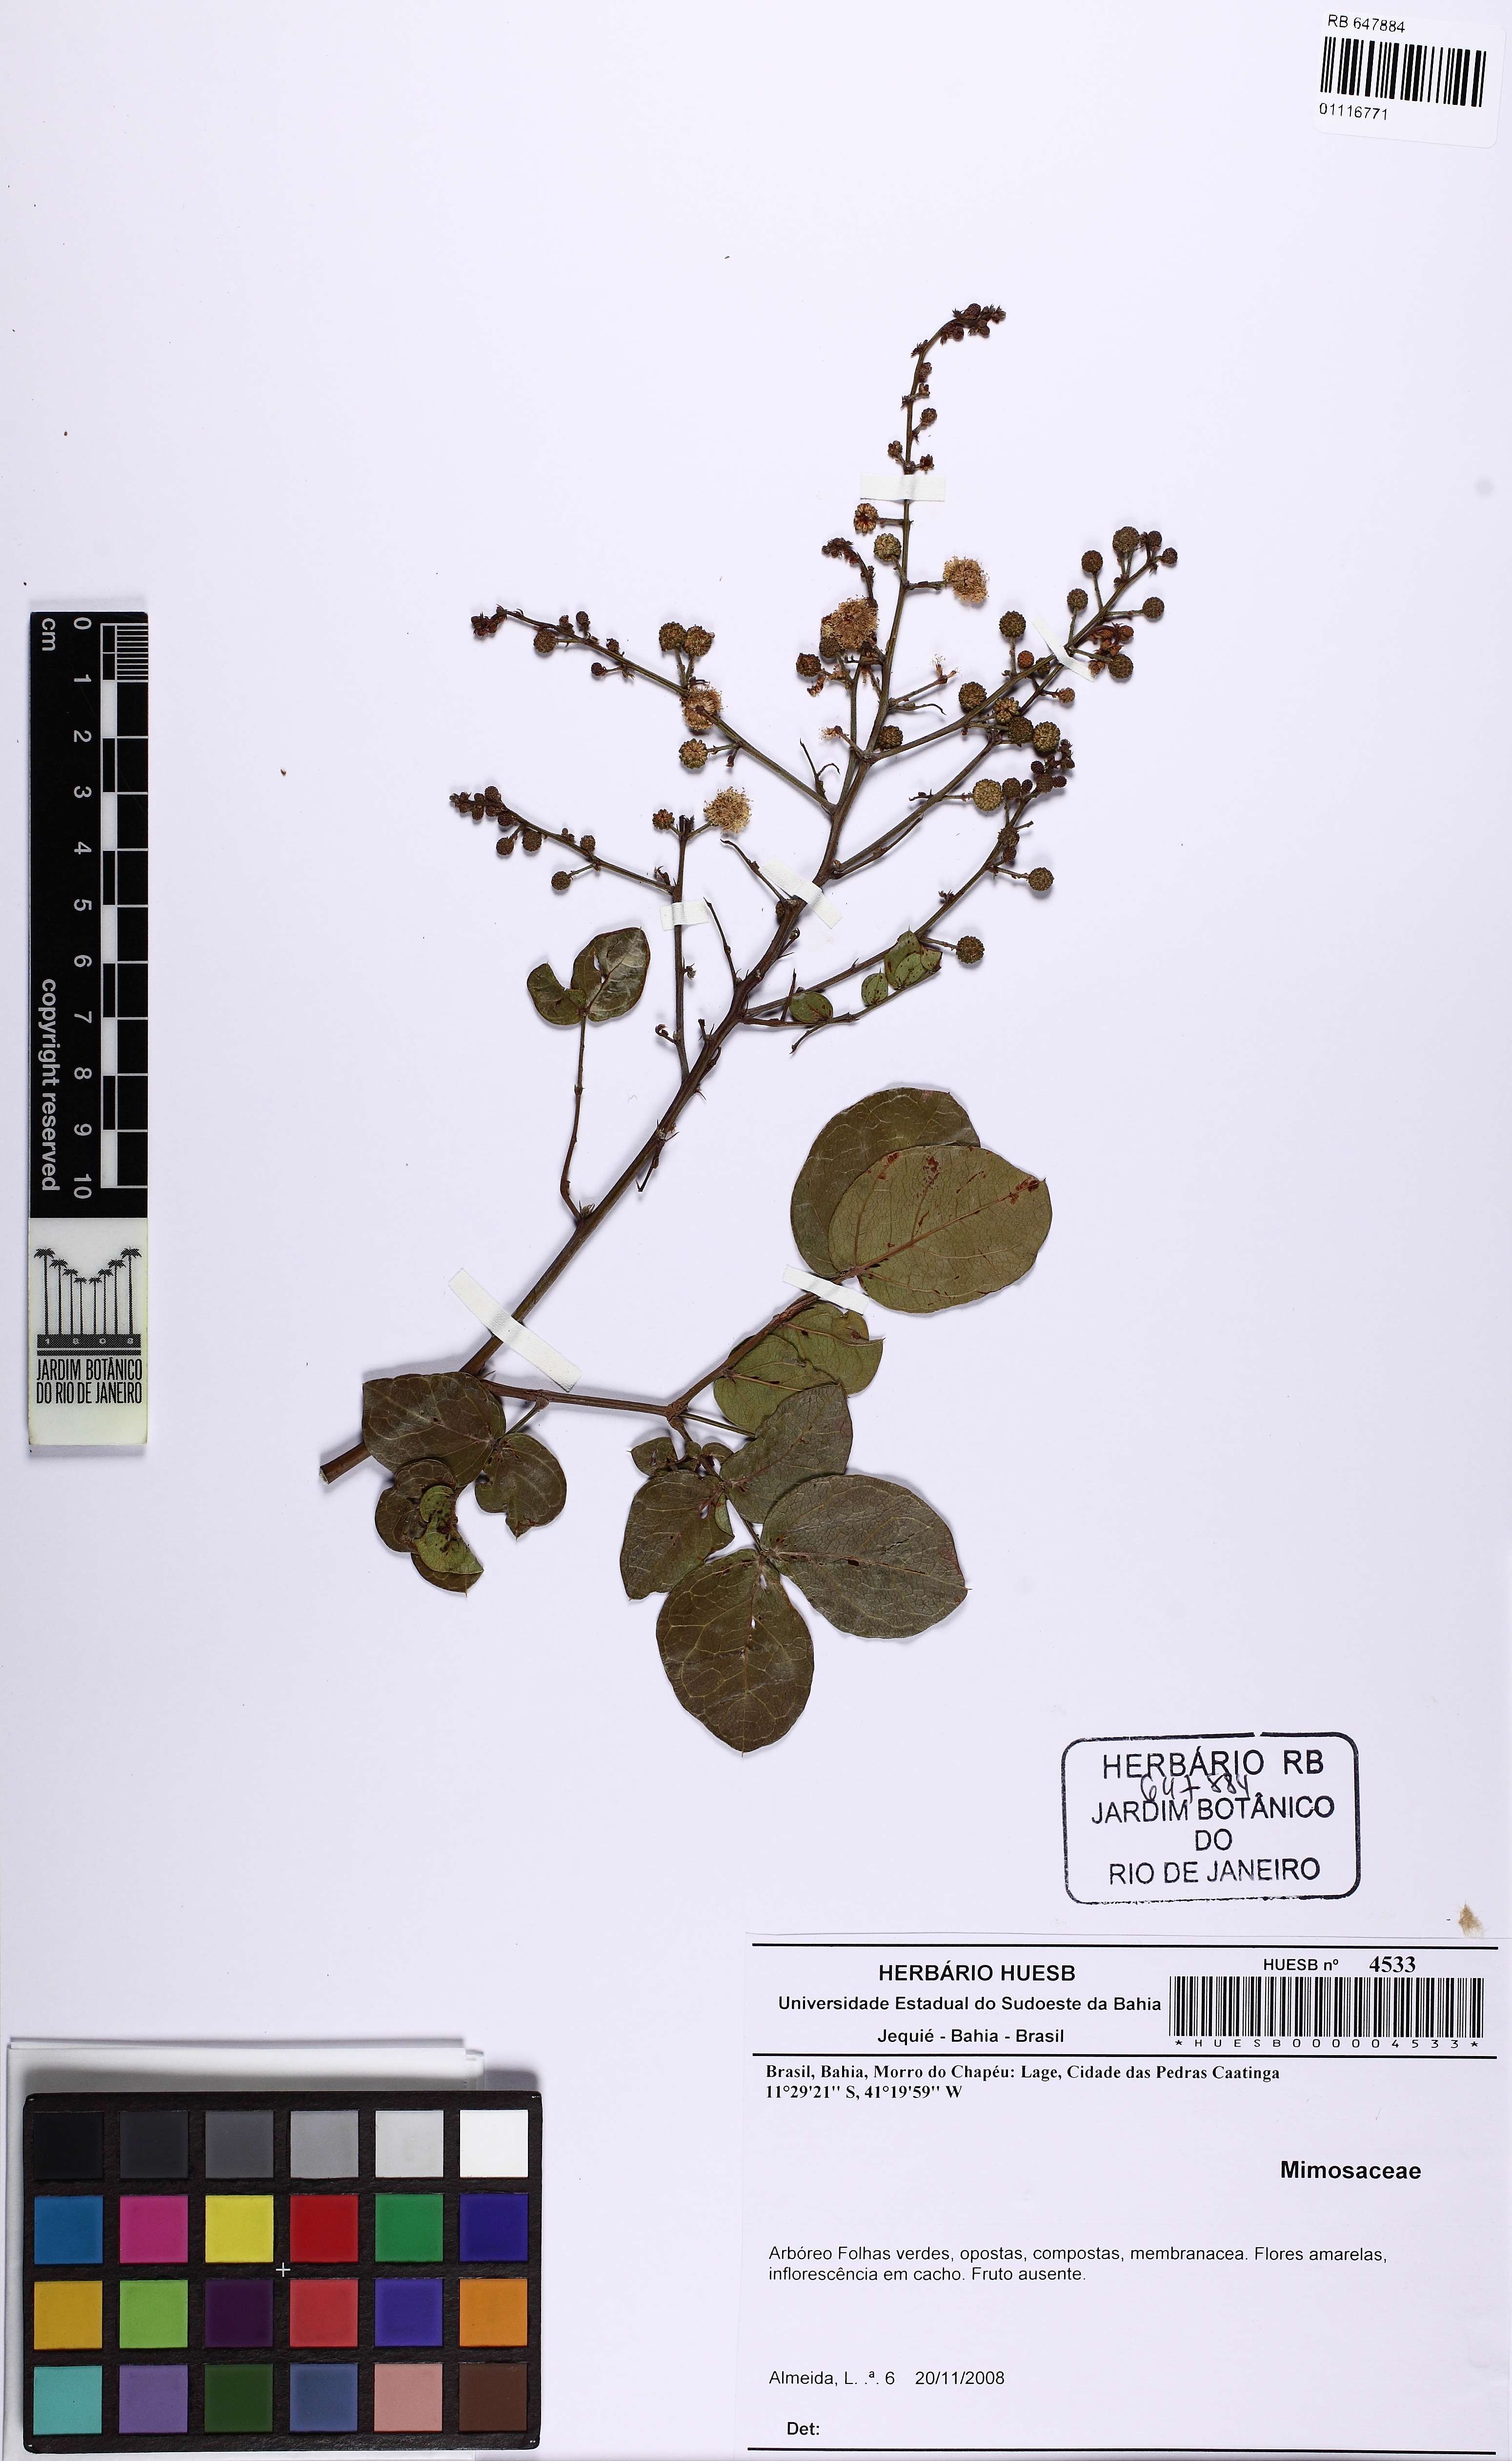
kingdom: Plantae
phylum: Tracheophyta
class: Magnoliopsida
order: Fabales
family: Fabaceae
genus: Mimosa
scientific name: Mimosa
